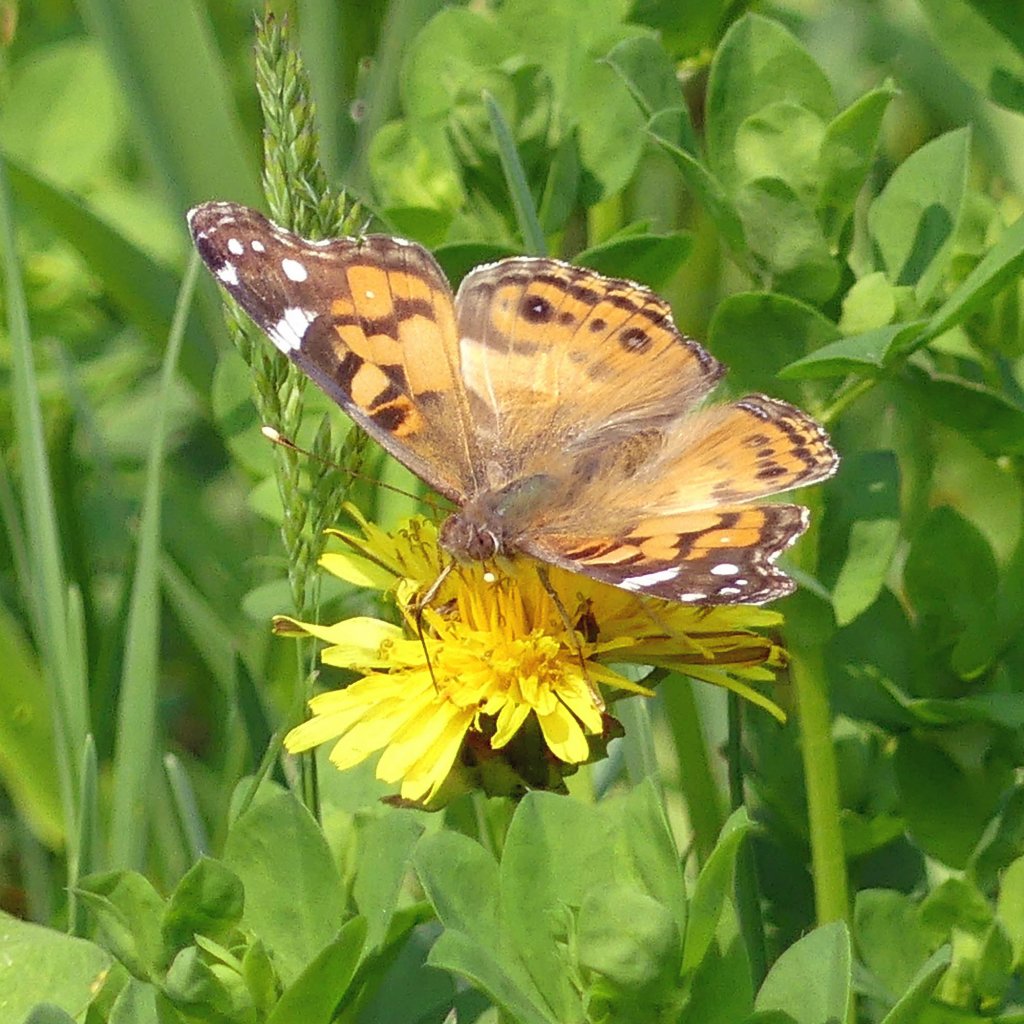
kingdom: Animalia
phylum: Arthropoda
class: Insecta
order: Lepidoptera
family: Nymphalidae
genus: Vanessa
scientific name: Vanessa virginiensis
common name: American Lady
